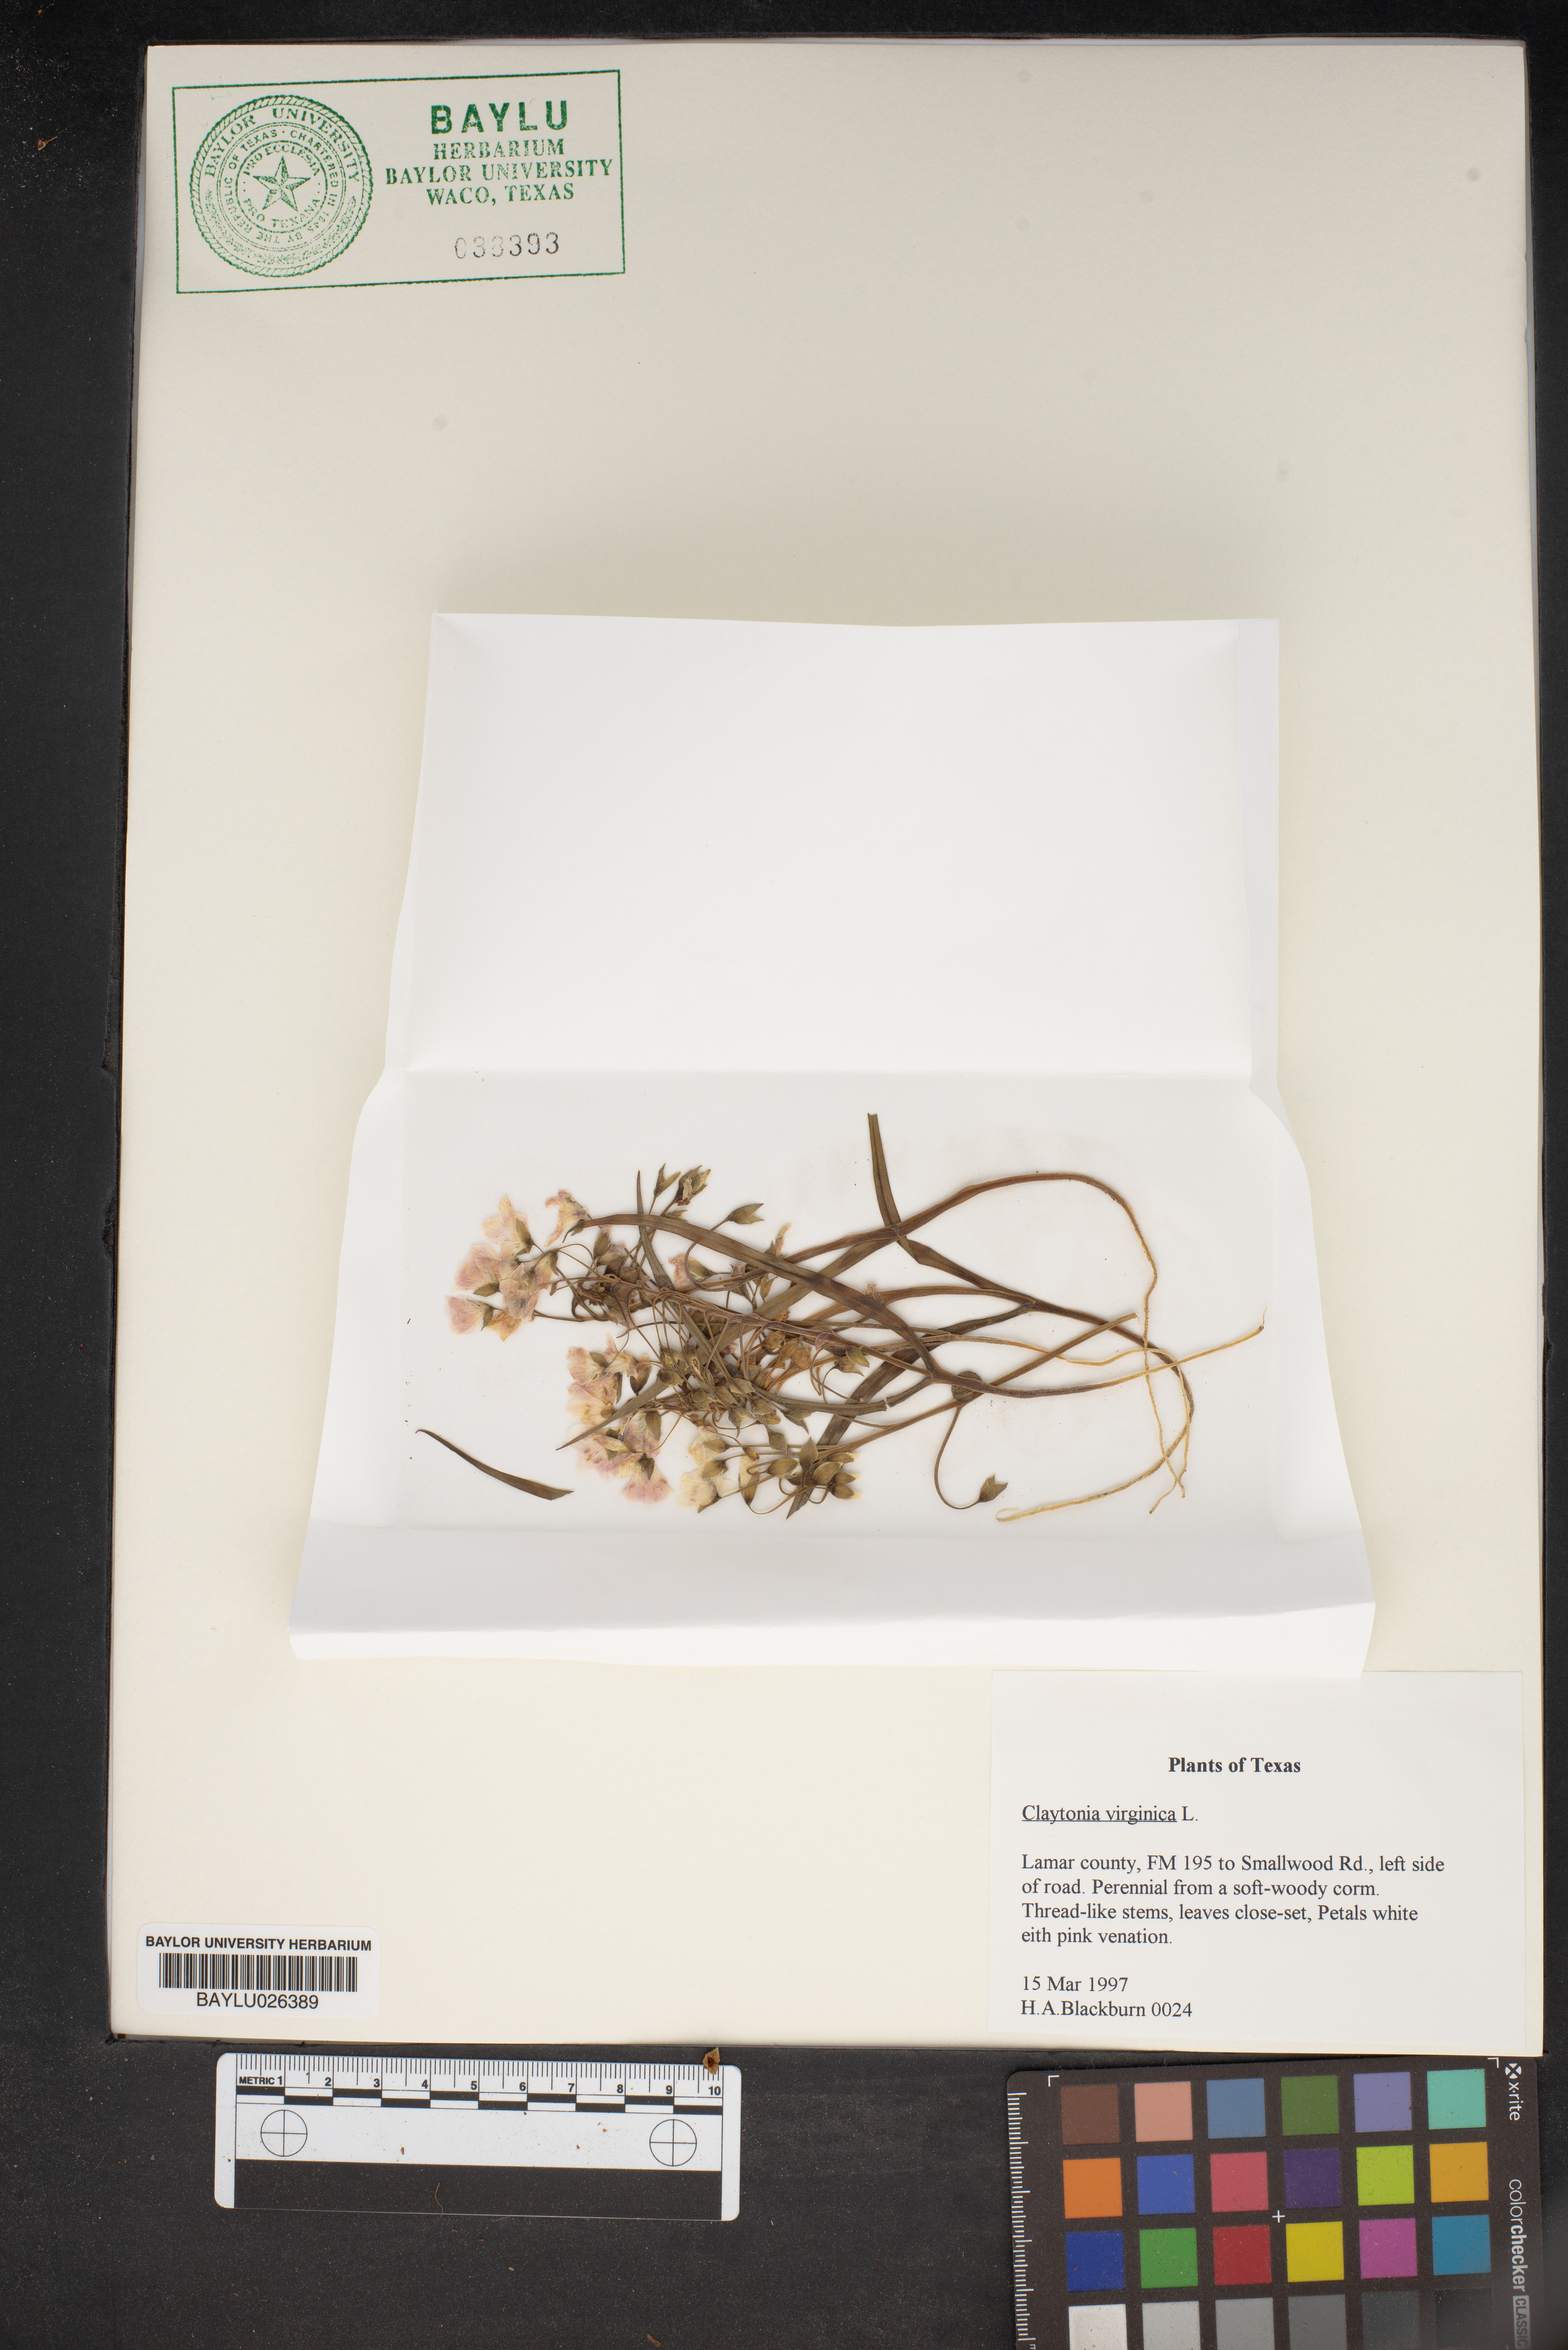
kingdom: Plantae
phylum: Tracheophyta
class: Magnoliopsida
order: Caryophyllales
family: Montiaceae
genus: Claytonia
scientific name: Claytonia virginica
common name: Virginia springbeauty
